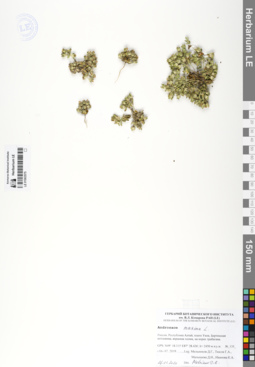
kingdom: Plantae
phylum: Tracheophyta
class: Magnoliopsida
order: Ericales
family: Primulaceae
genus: Androsace
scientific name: Androsace maxima
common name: Annual androsace
